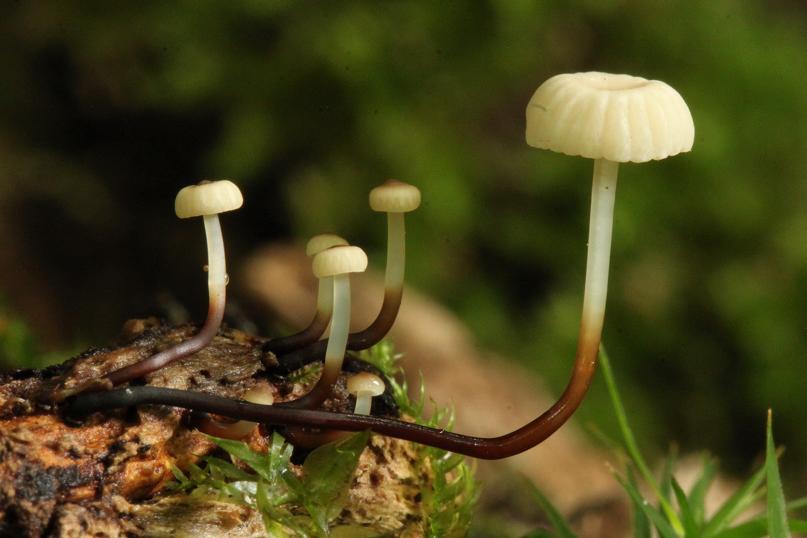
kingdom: Fungi
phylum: Basidiomycota
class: Agaricomycetes
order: Agaricales
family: Marasmiaceae
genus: Marasmius
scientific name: Marasmius rotula
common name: hjul-bruskhat
